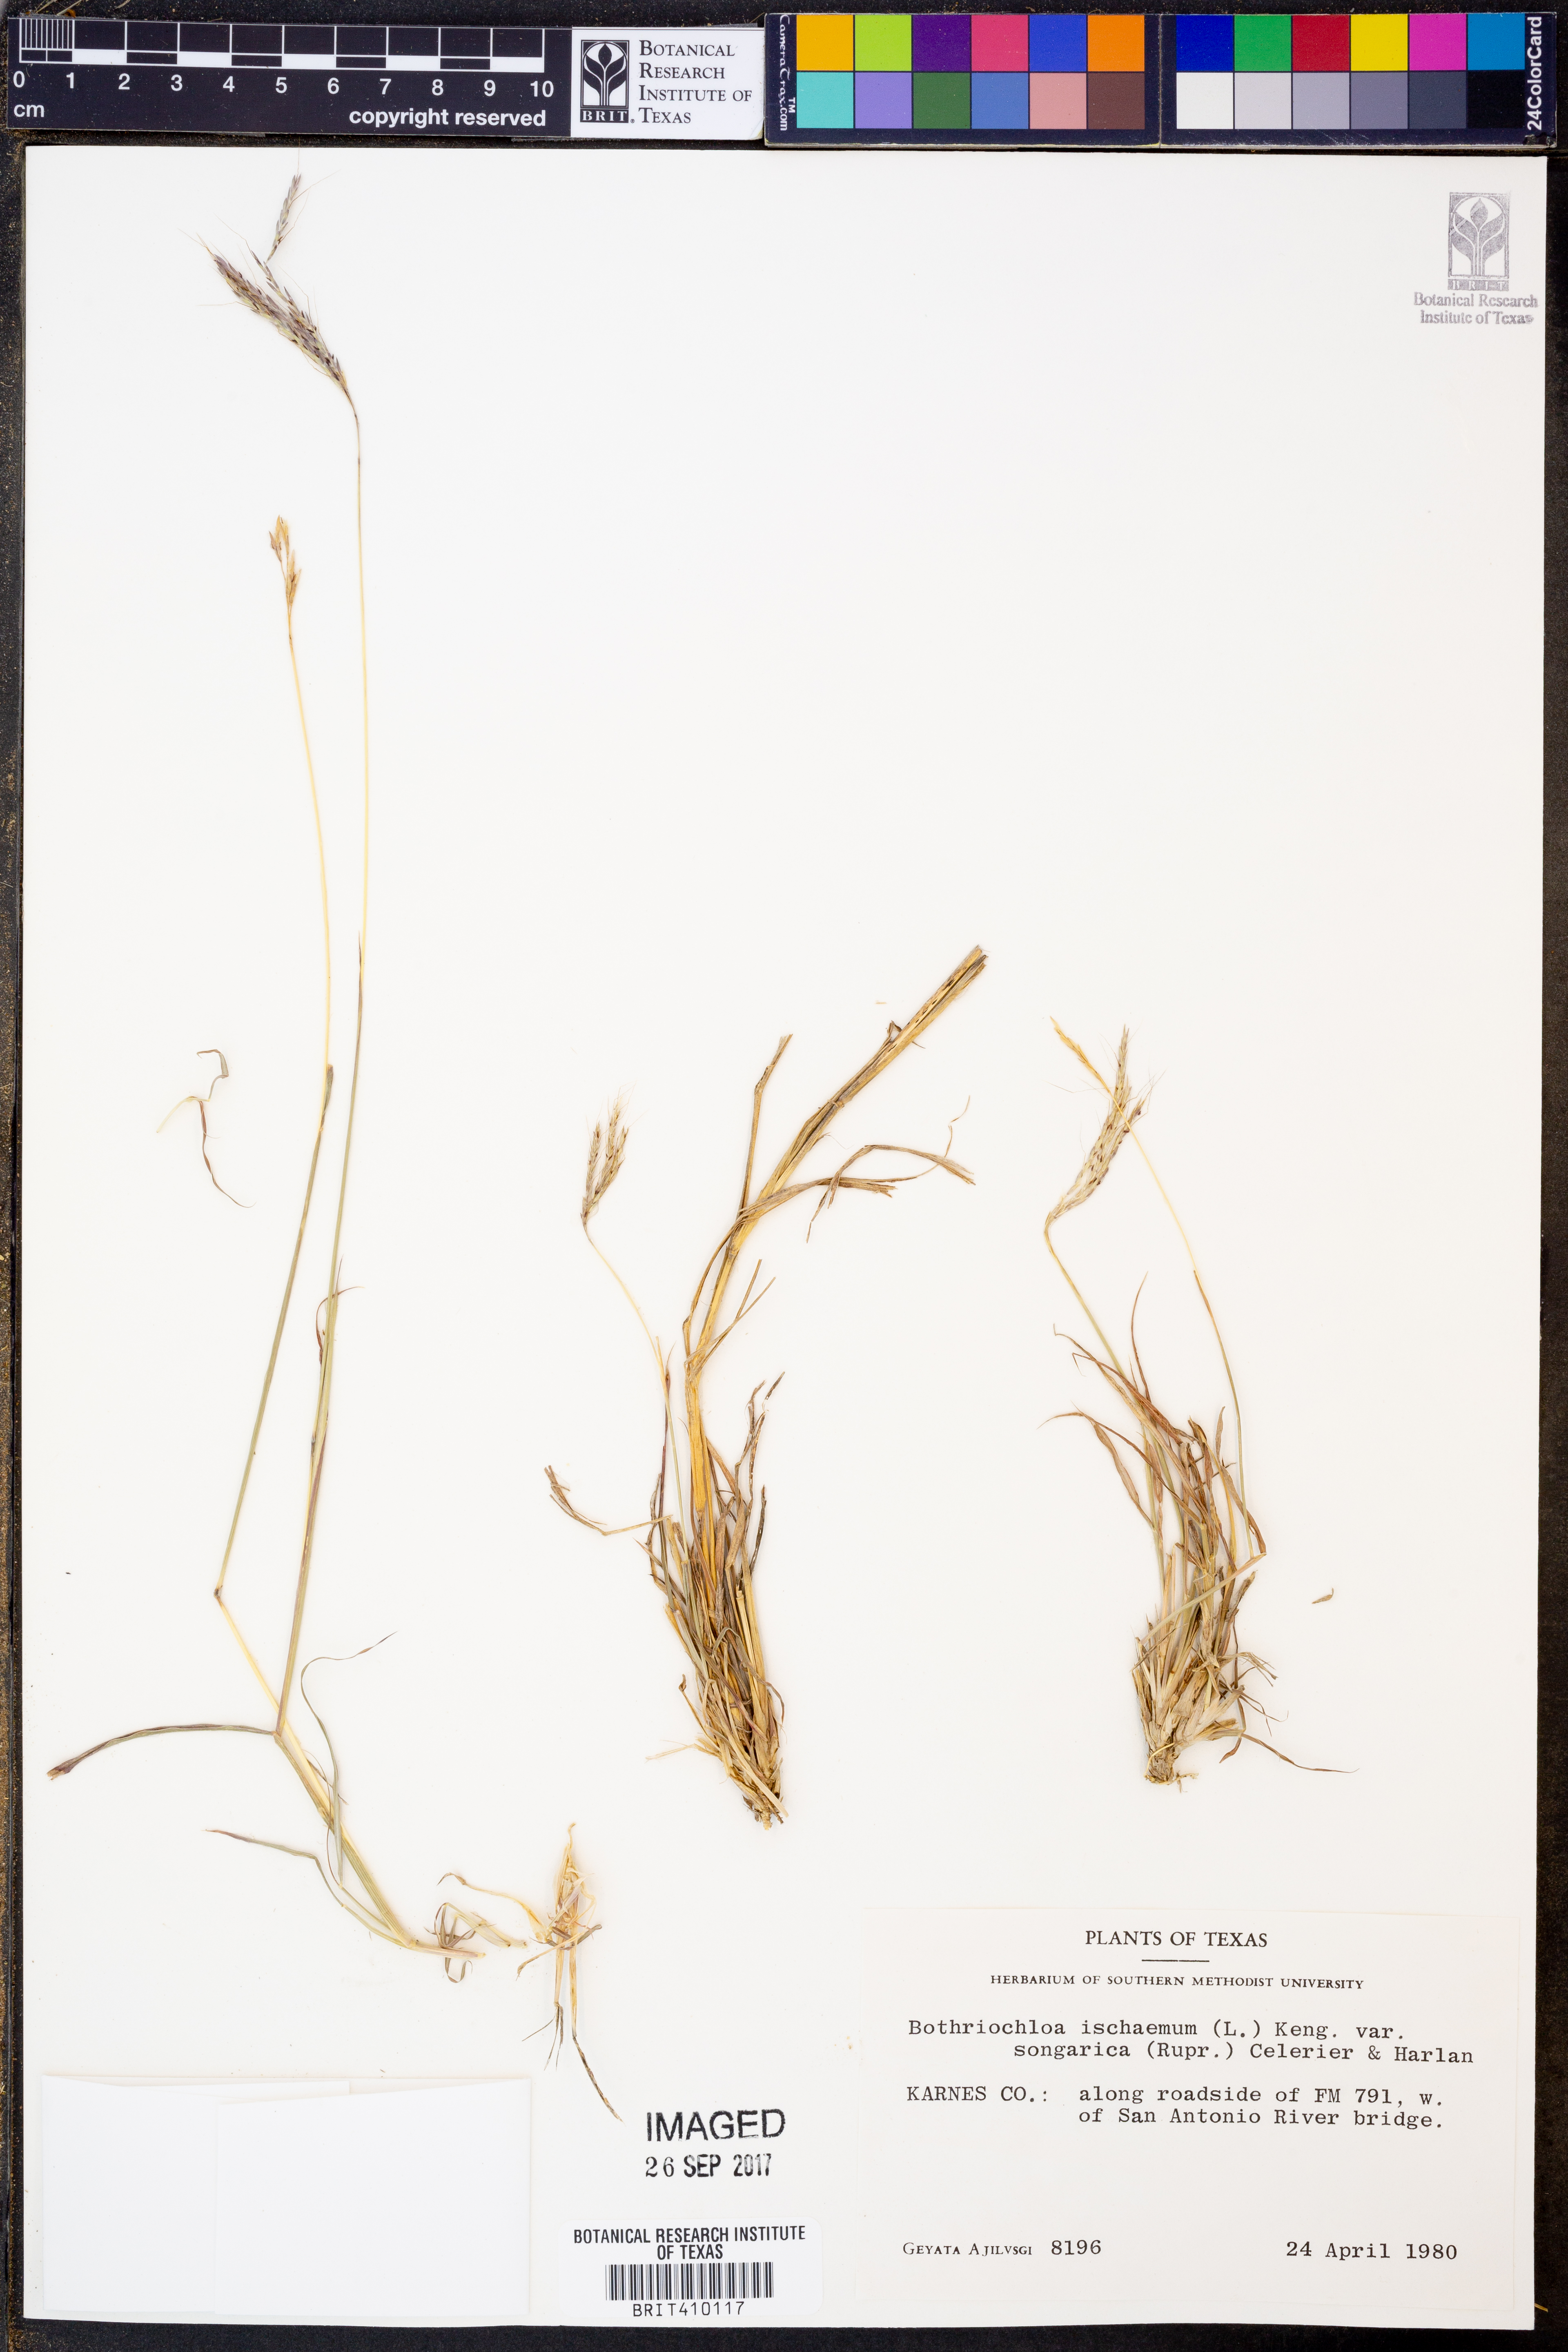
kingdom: Plantae
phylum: Tracheophyta
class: Liliopsida
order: Poales
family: Poaceae
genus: Bothriochloa
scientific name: Bothriochloa ischaemum
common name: Yellow bluestem
